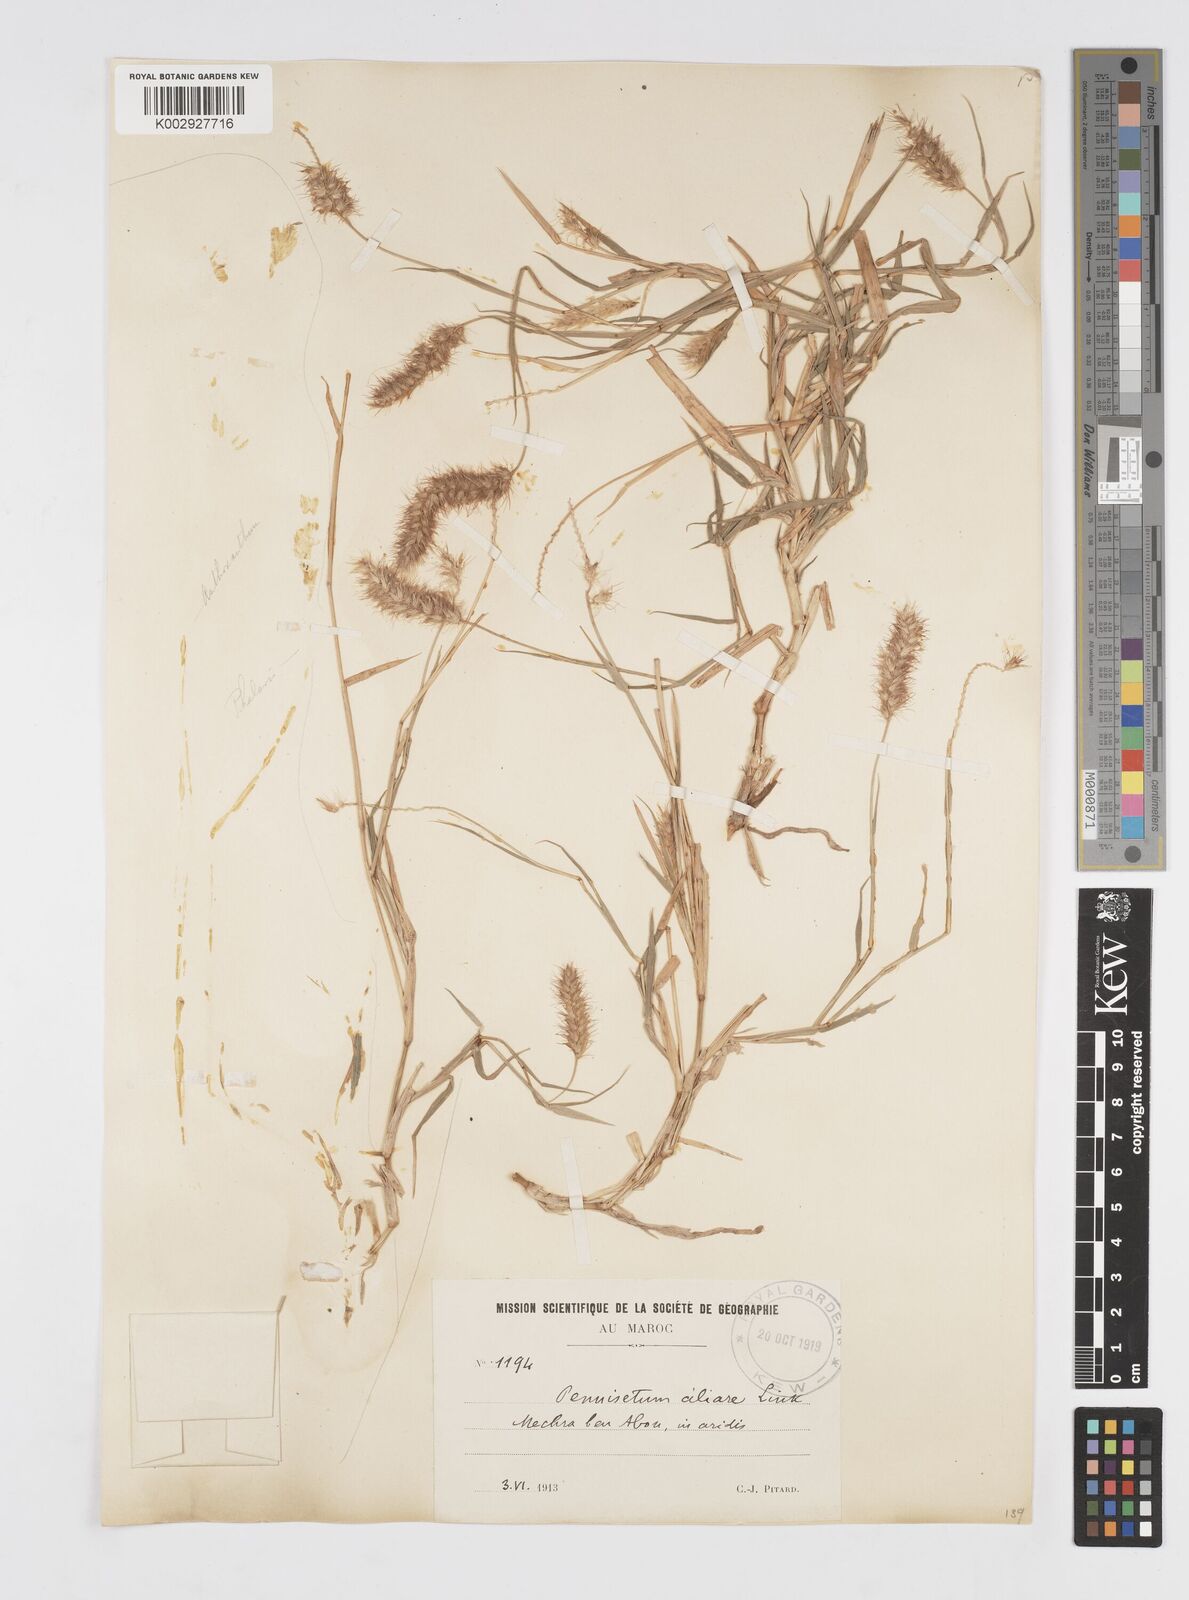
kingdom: Plantae
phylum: Tracheophyta
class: Liliopsida
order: Poales
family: Poaceae
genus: Cenchrus
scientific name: Cenchrus ciliaris
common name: Buffelgrass
